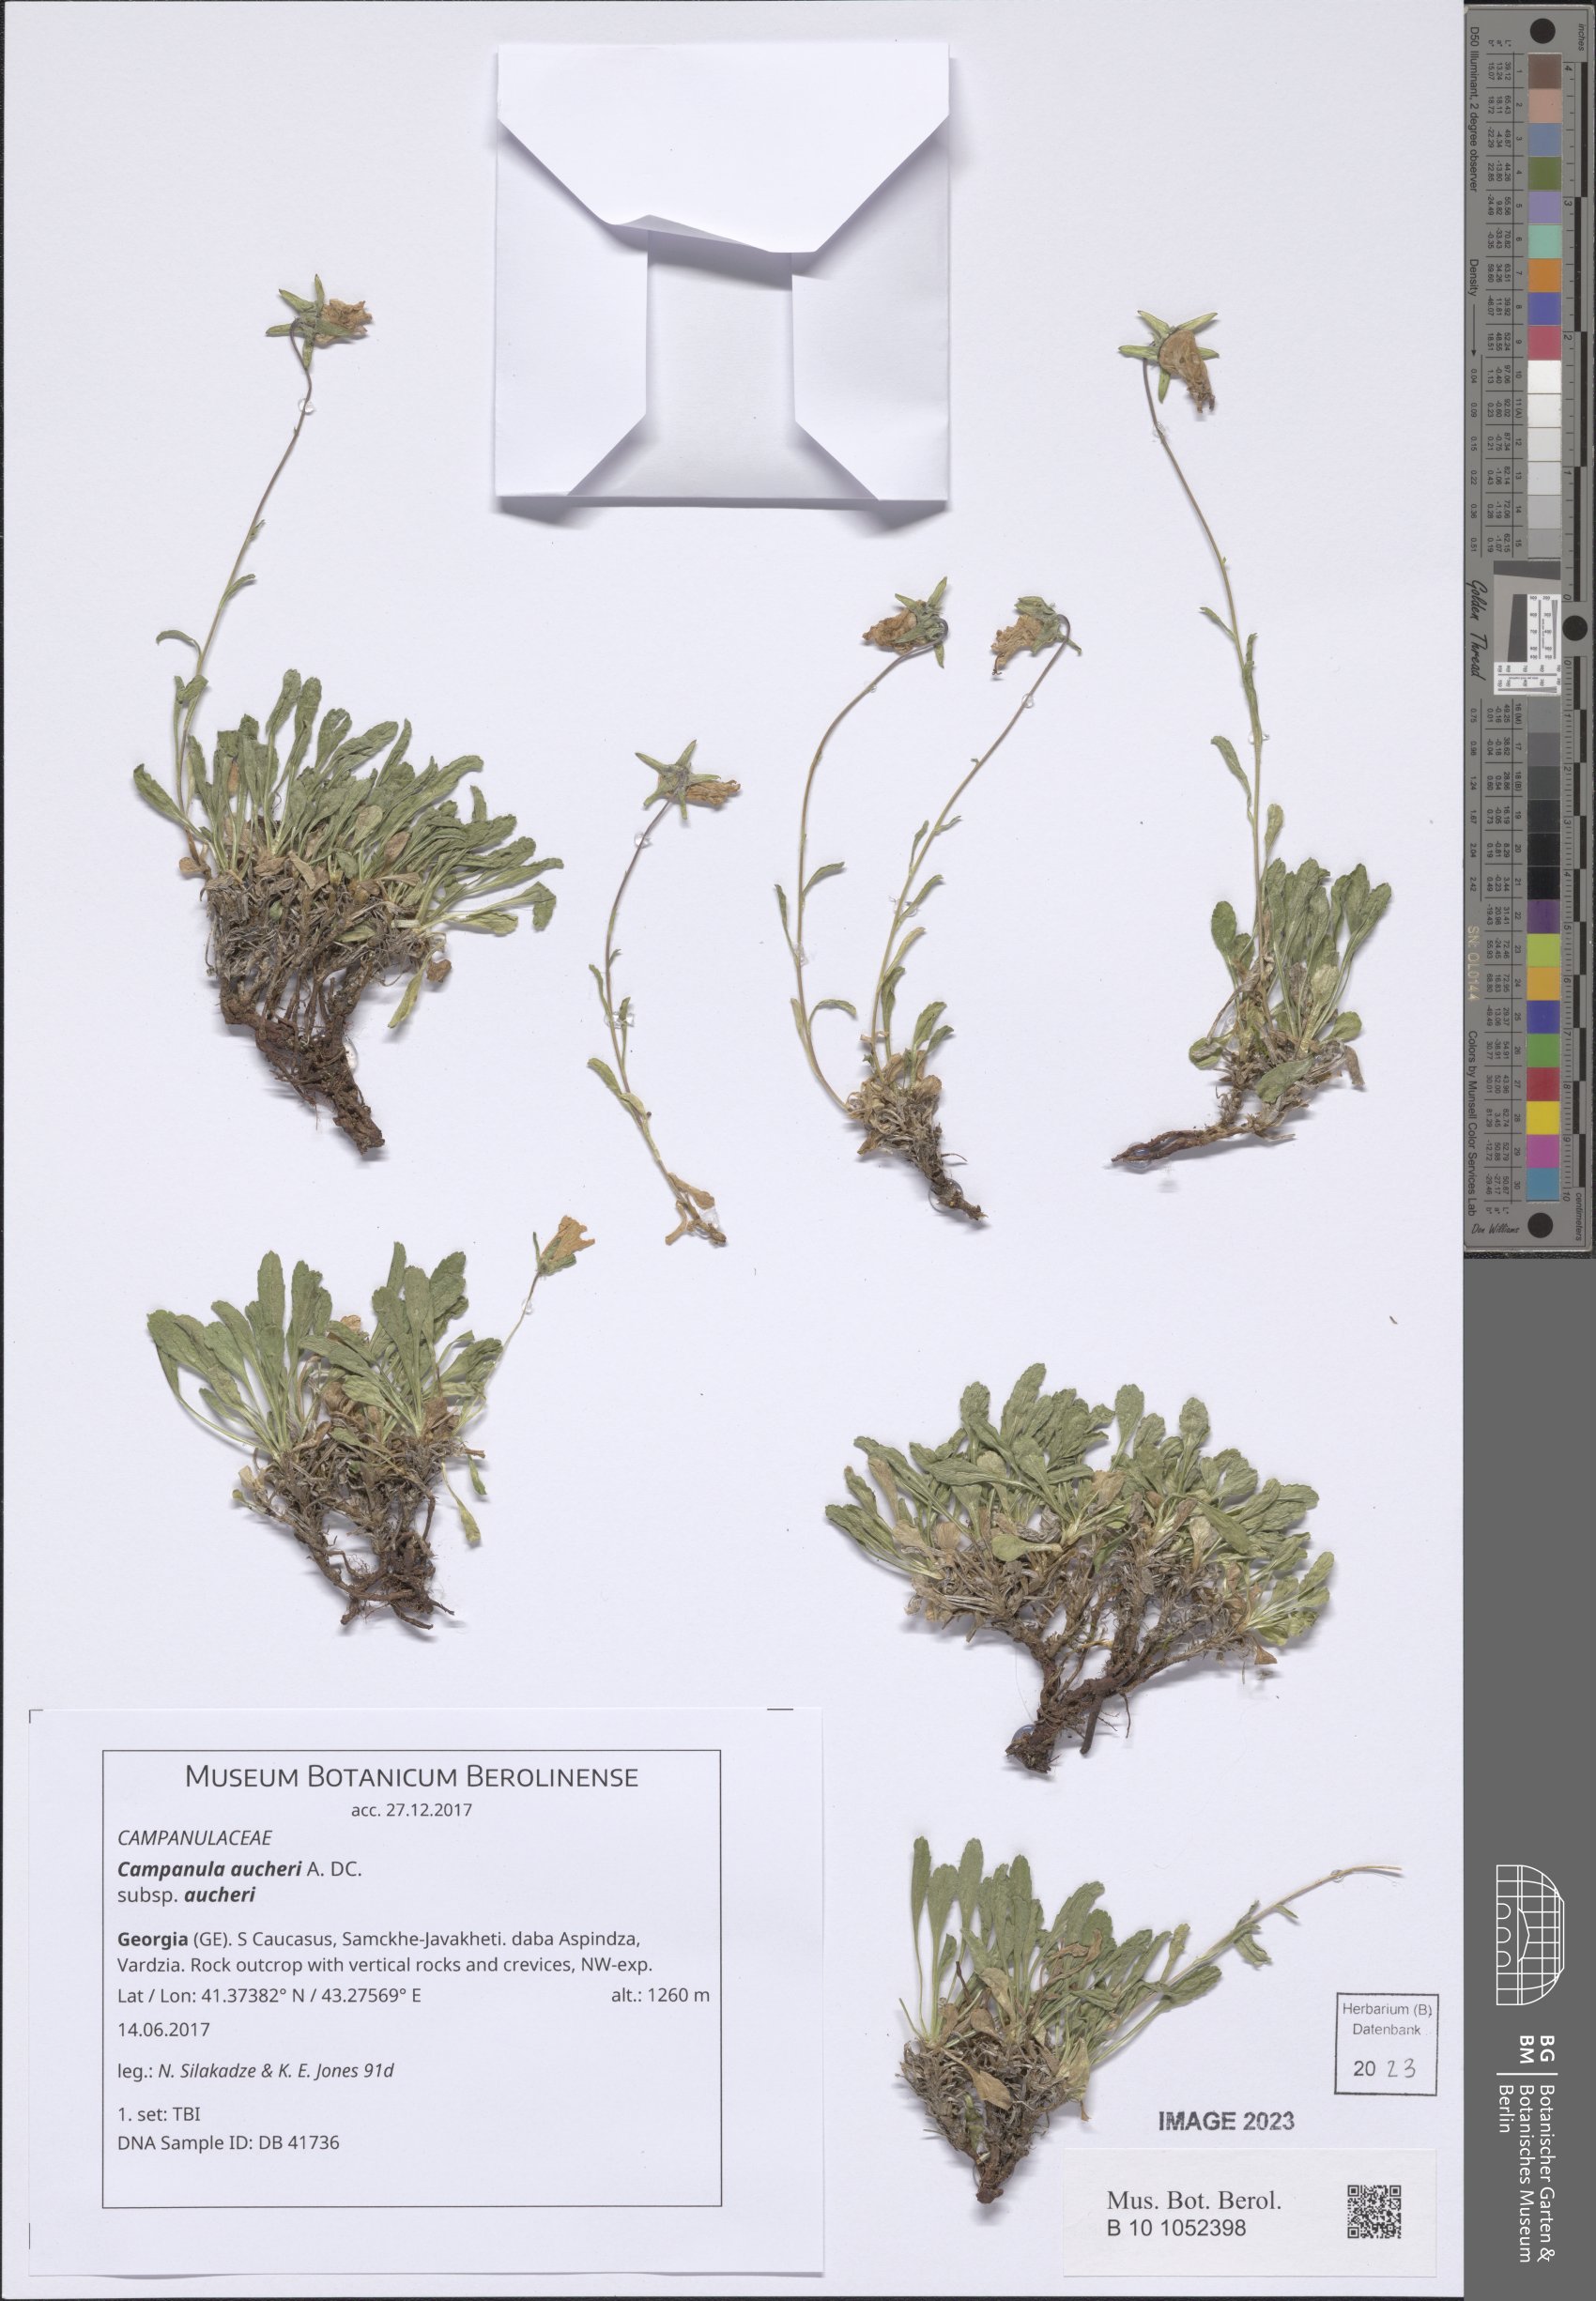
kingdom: Plantae
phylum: Tracheophyta
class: Magnoliopsida
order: Asterales
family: Campanulaceae
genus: Campanula
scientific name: Campanula saxifraga
